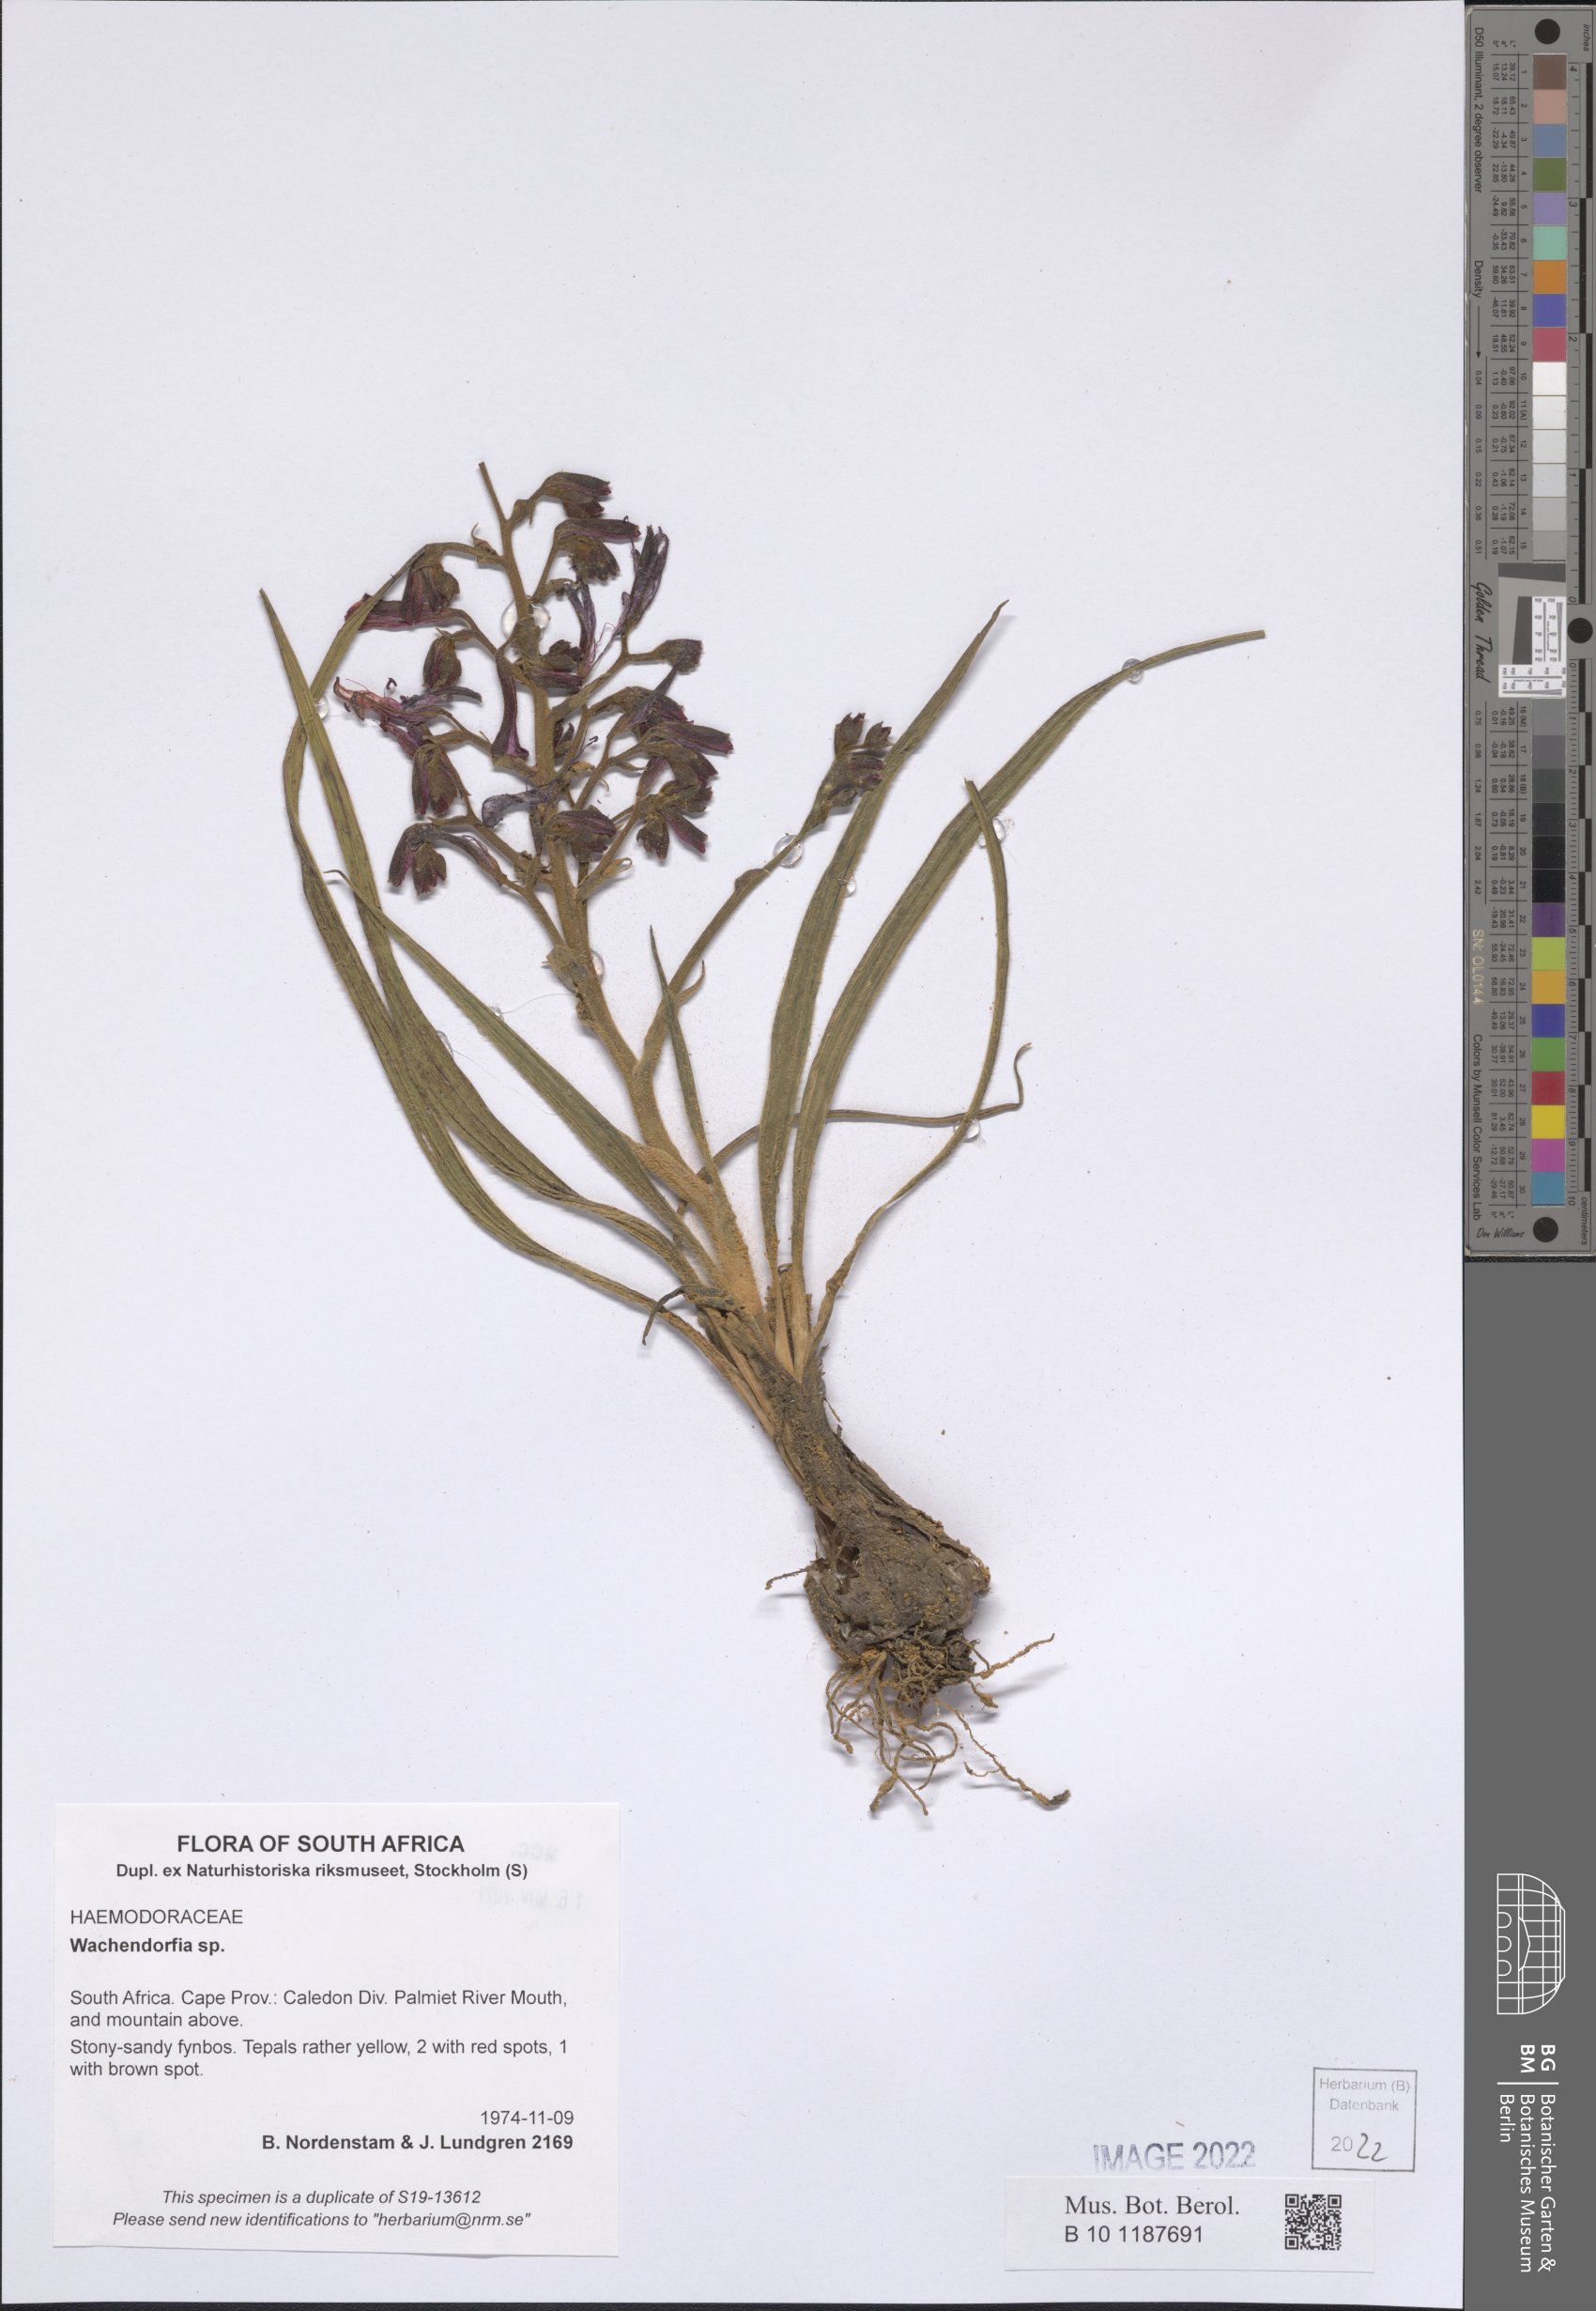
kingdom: Plantae
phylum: Tracheophyta
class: Liliopsida
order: Commelinales
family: Haemodoraceae
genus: Wachendorfia
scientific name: Wachendorfia
